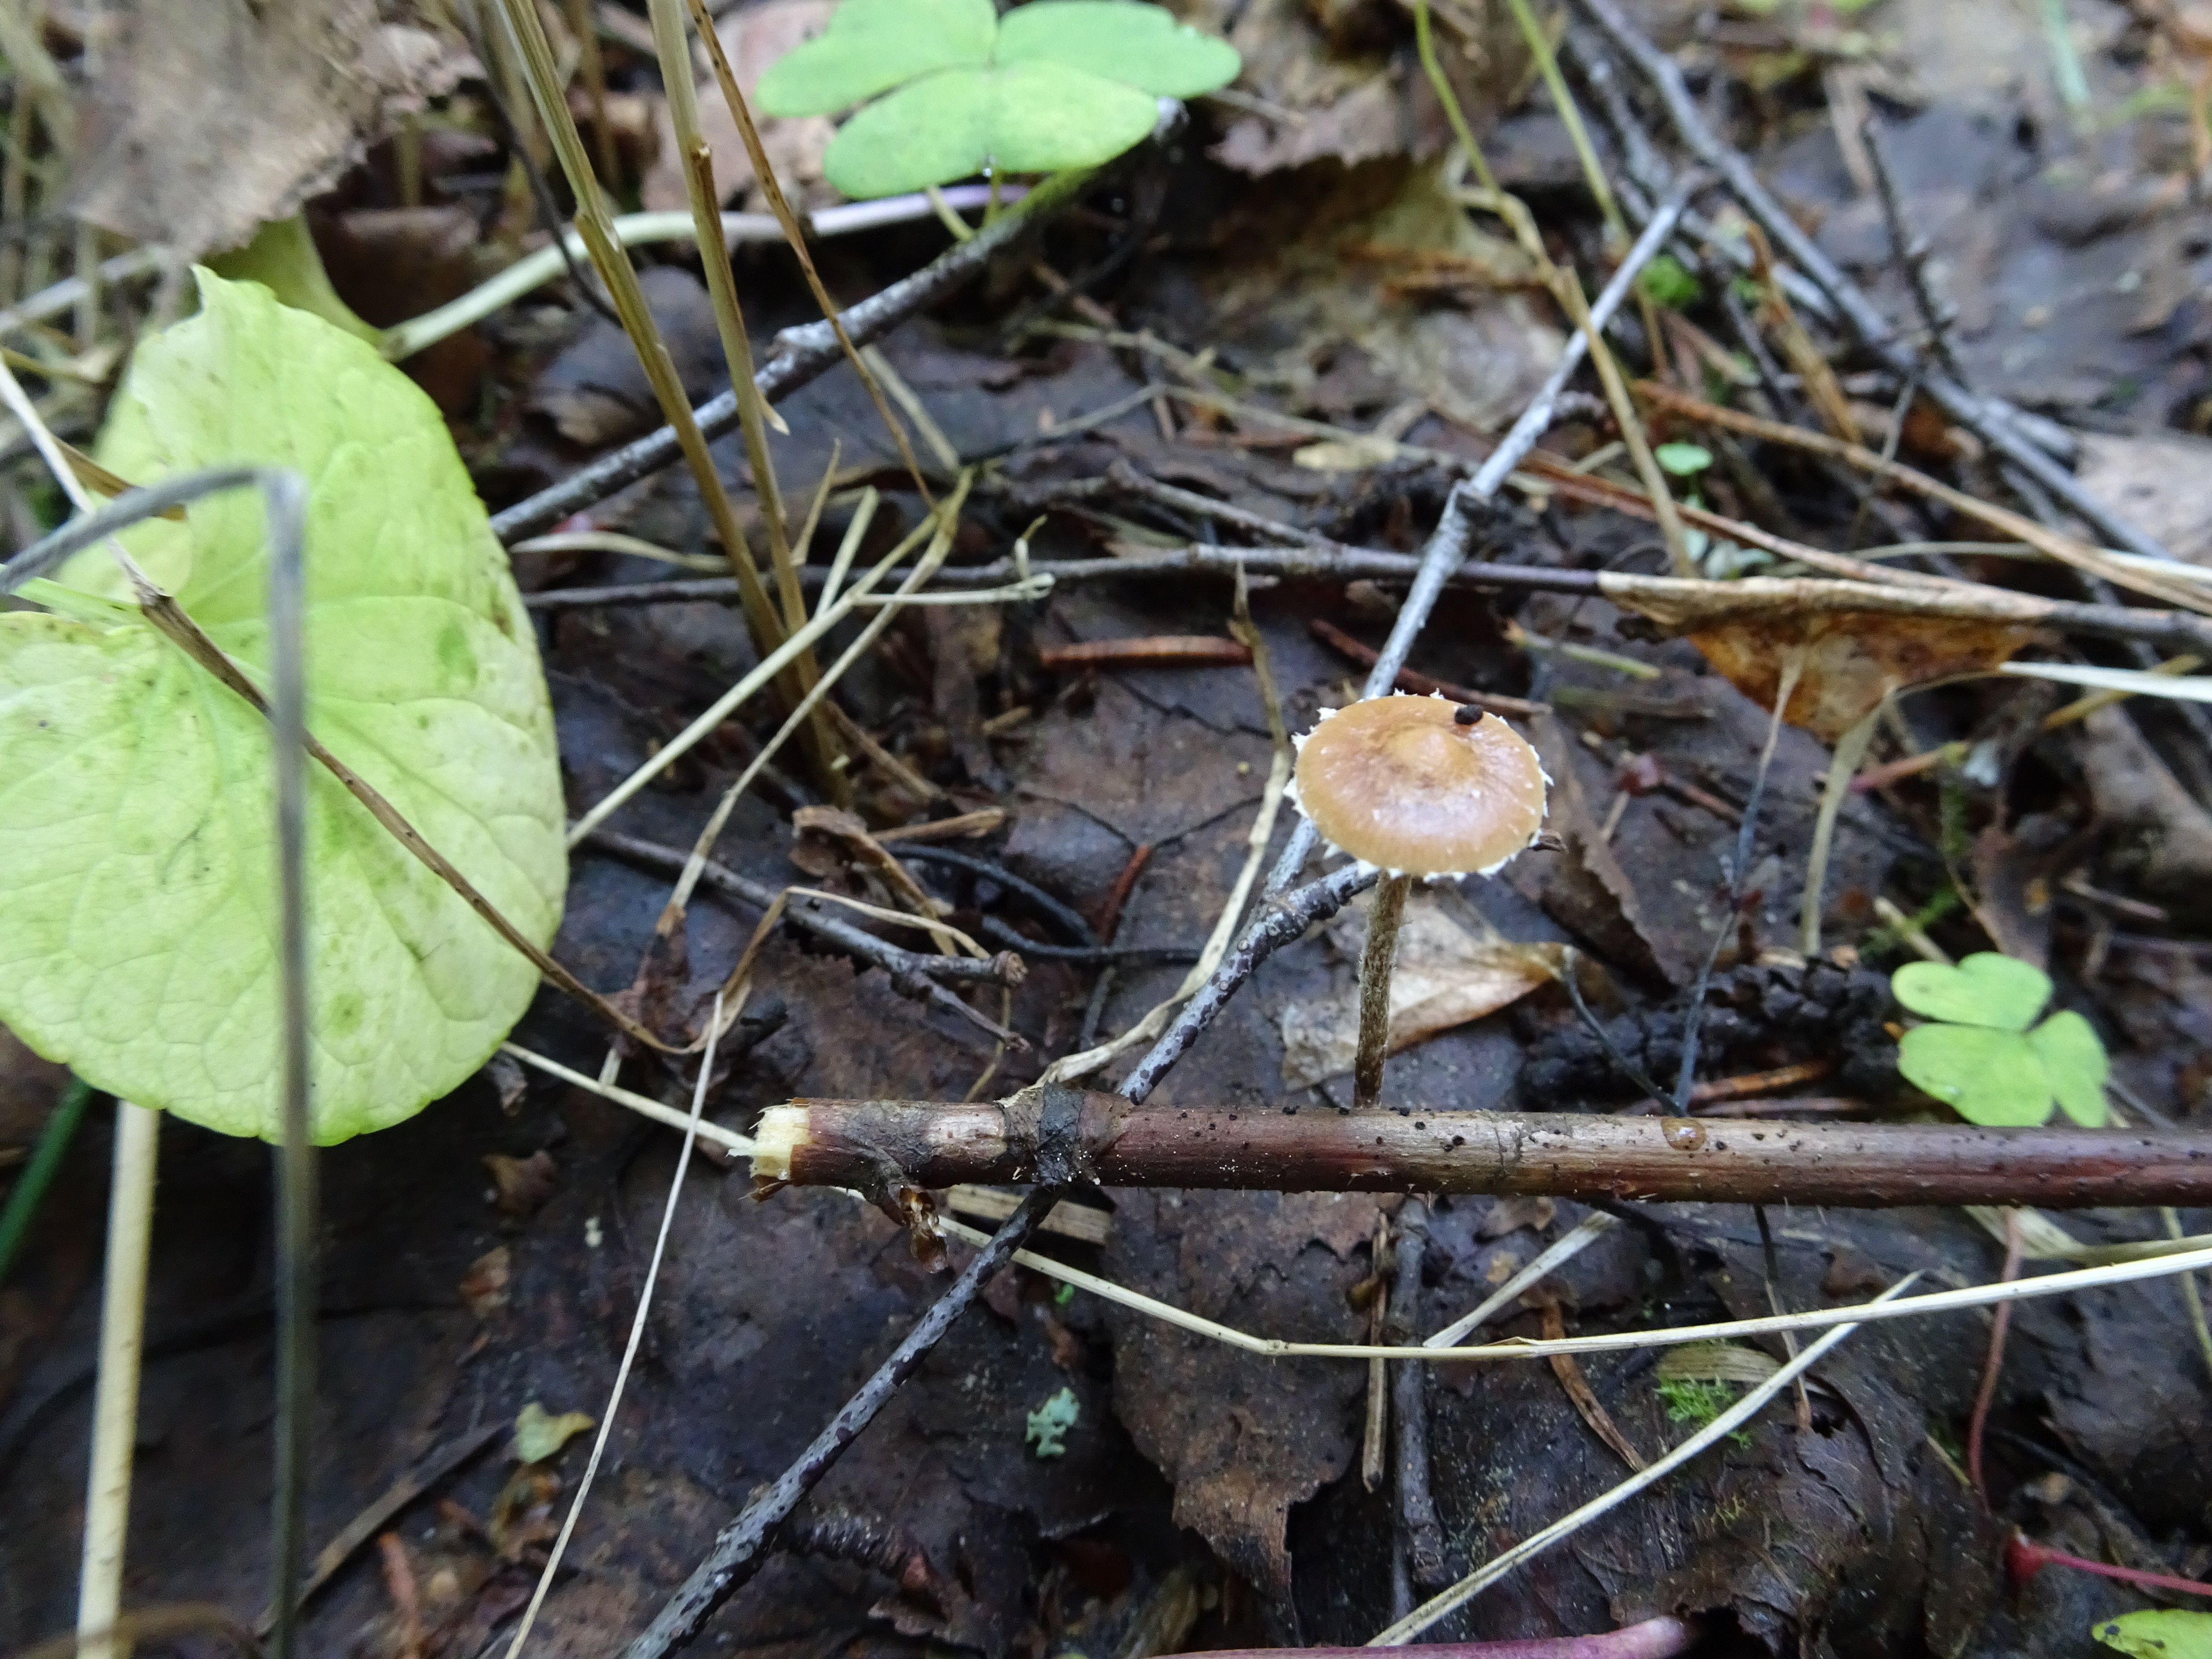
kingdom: Fungi
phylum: Basidiomycota
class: Agaricomycetes
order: Agaricales
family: Strophariaceae
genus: Deconica
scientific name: Deconica
